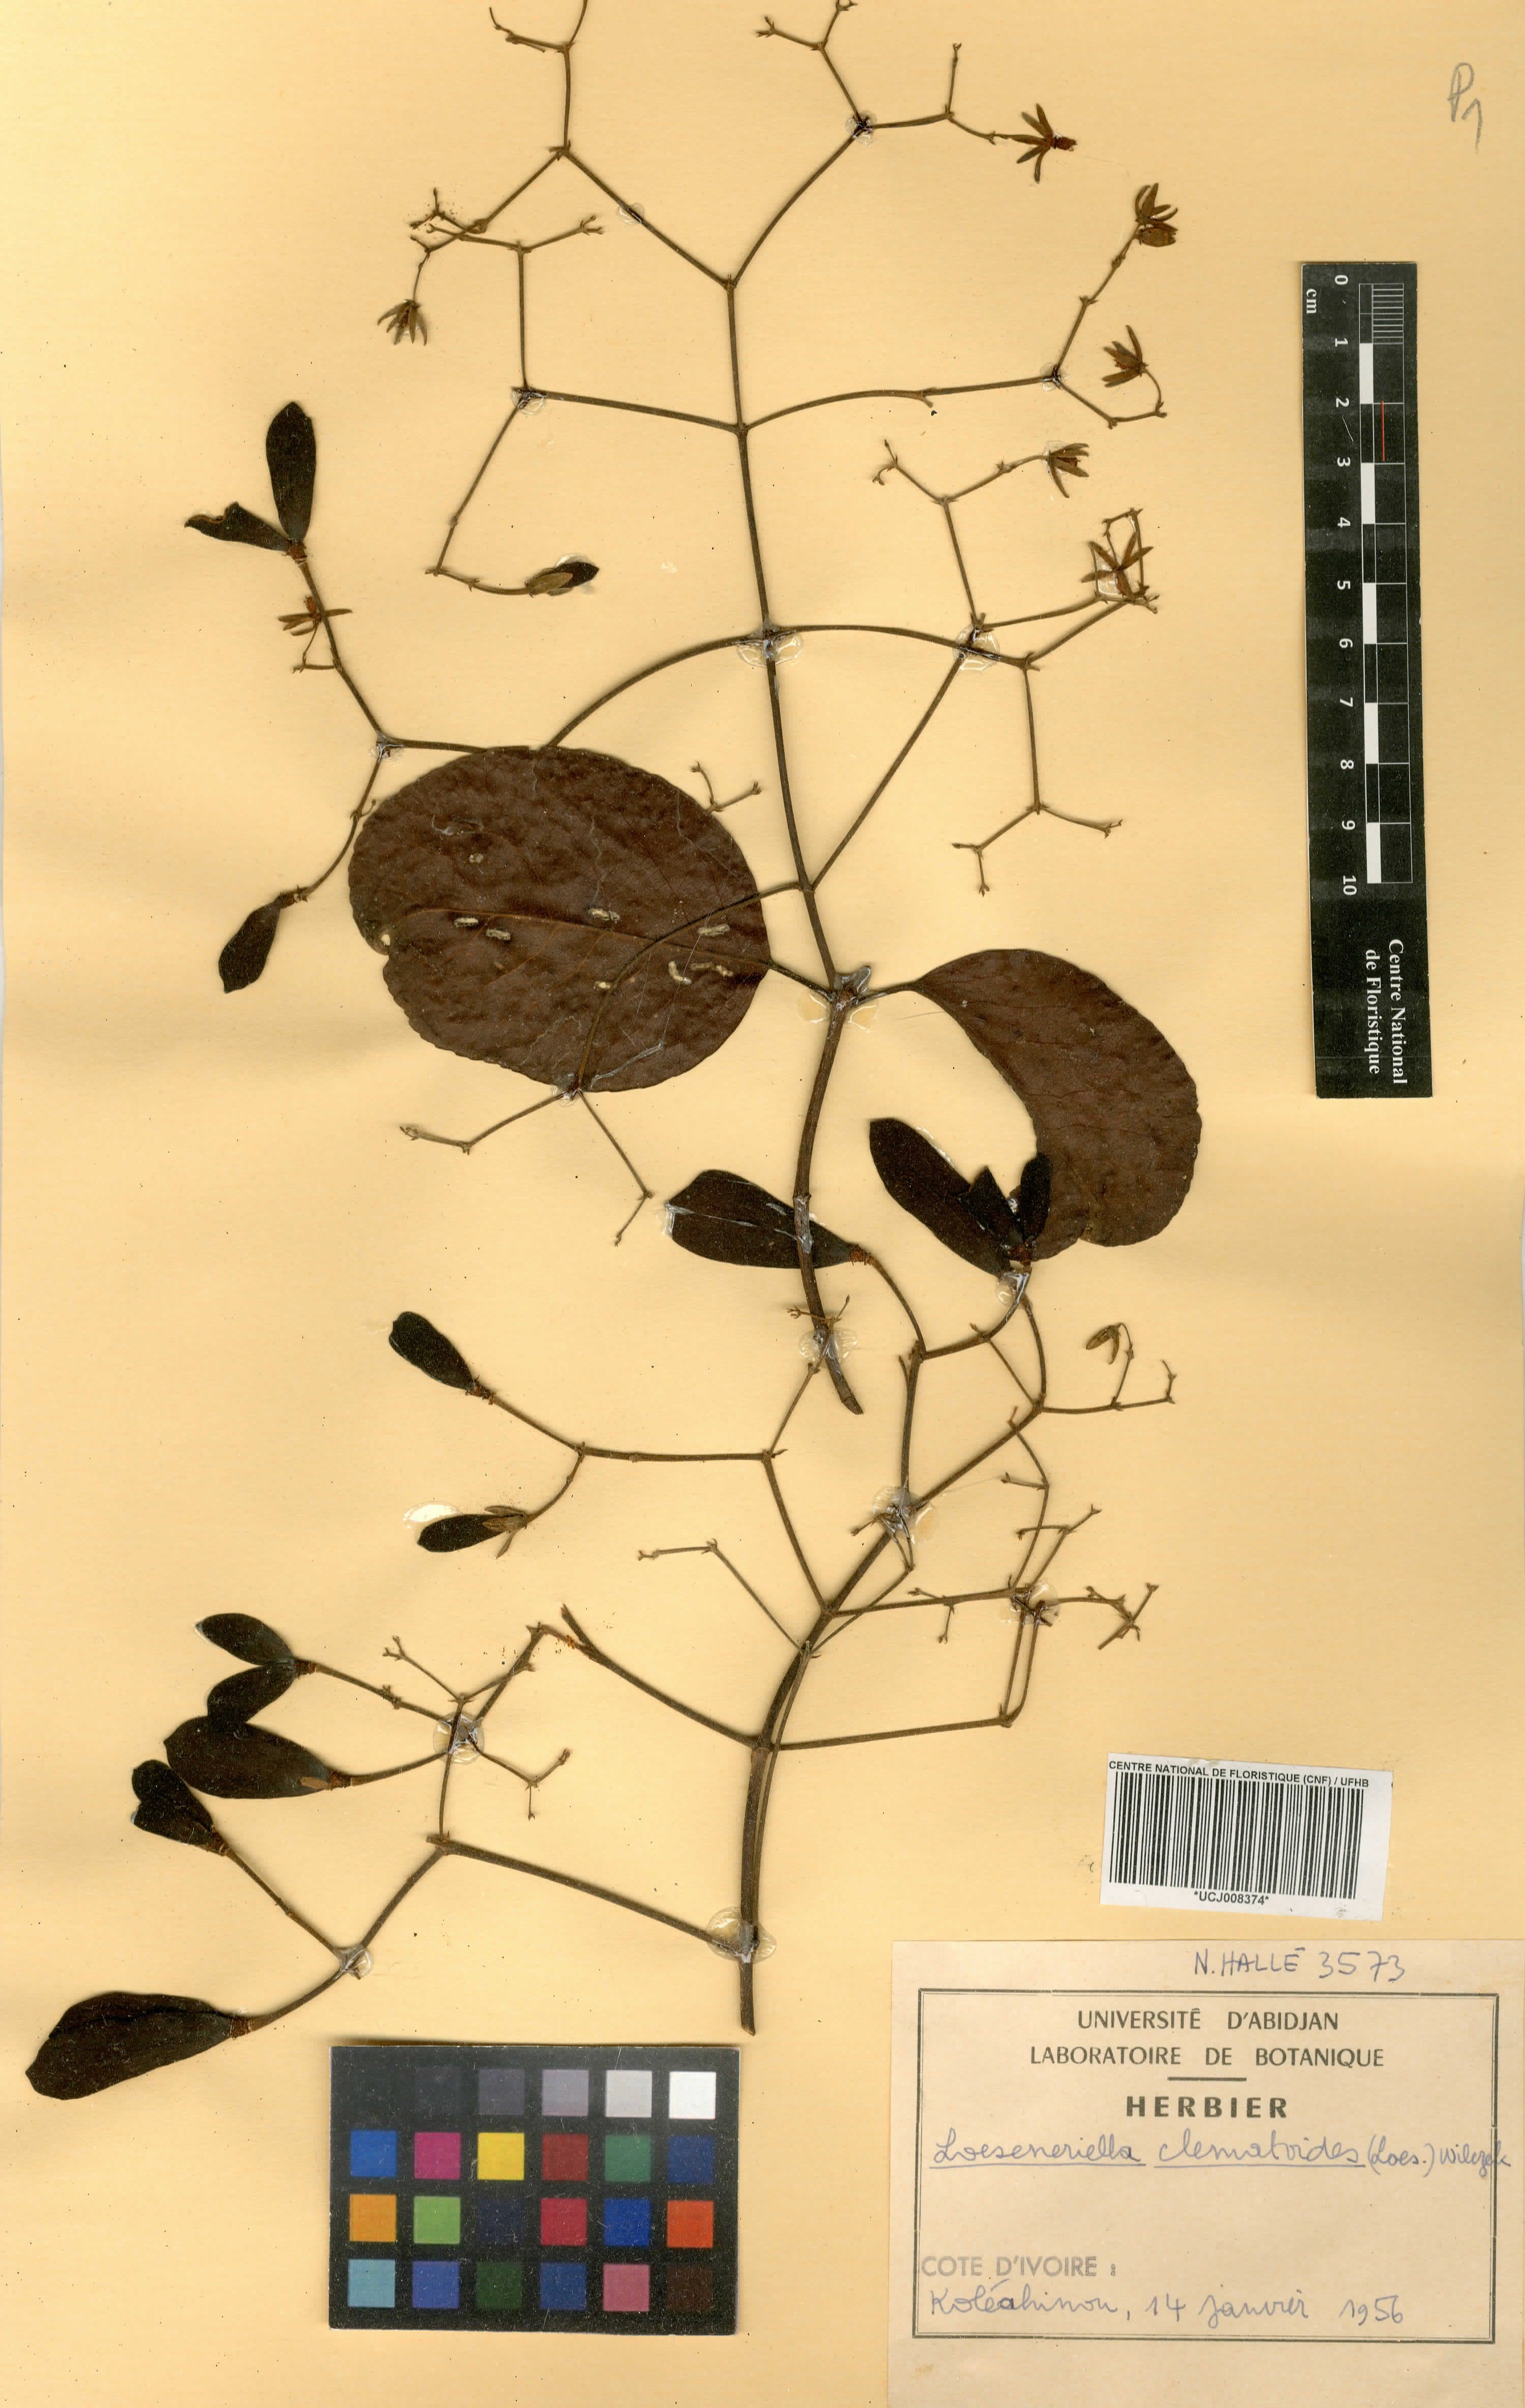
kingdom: Plantae
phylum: Tracheophyta
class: Magnoliopsida
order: Celastrales
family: Celastraceae
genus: Loeseneriella
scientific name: Loeseneriella clematoides
